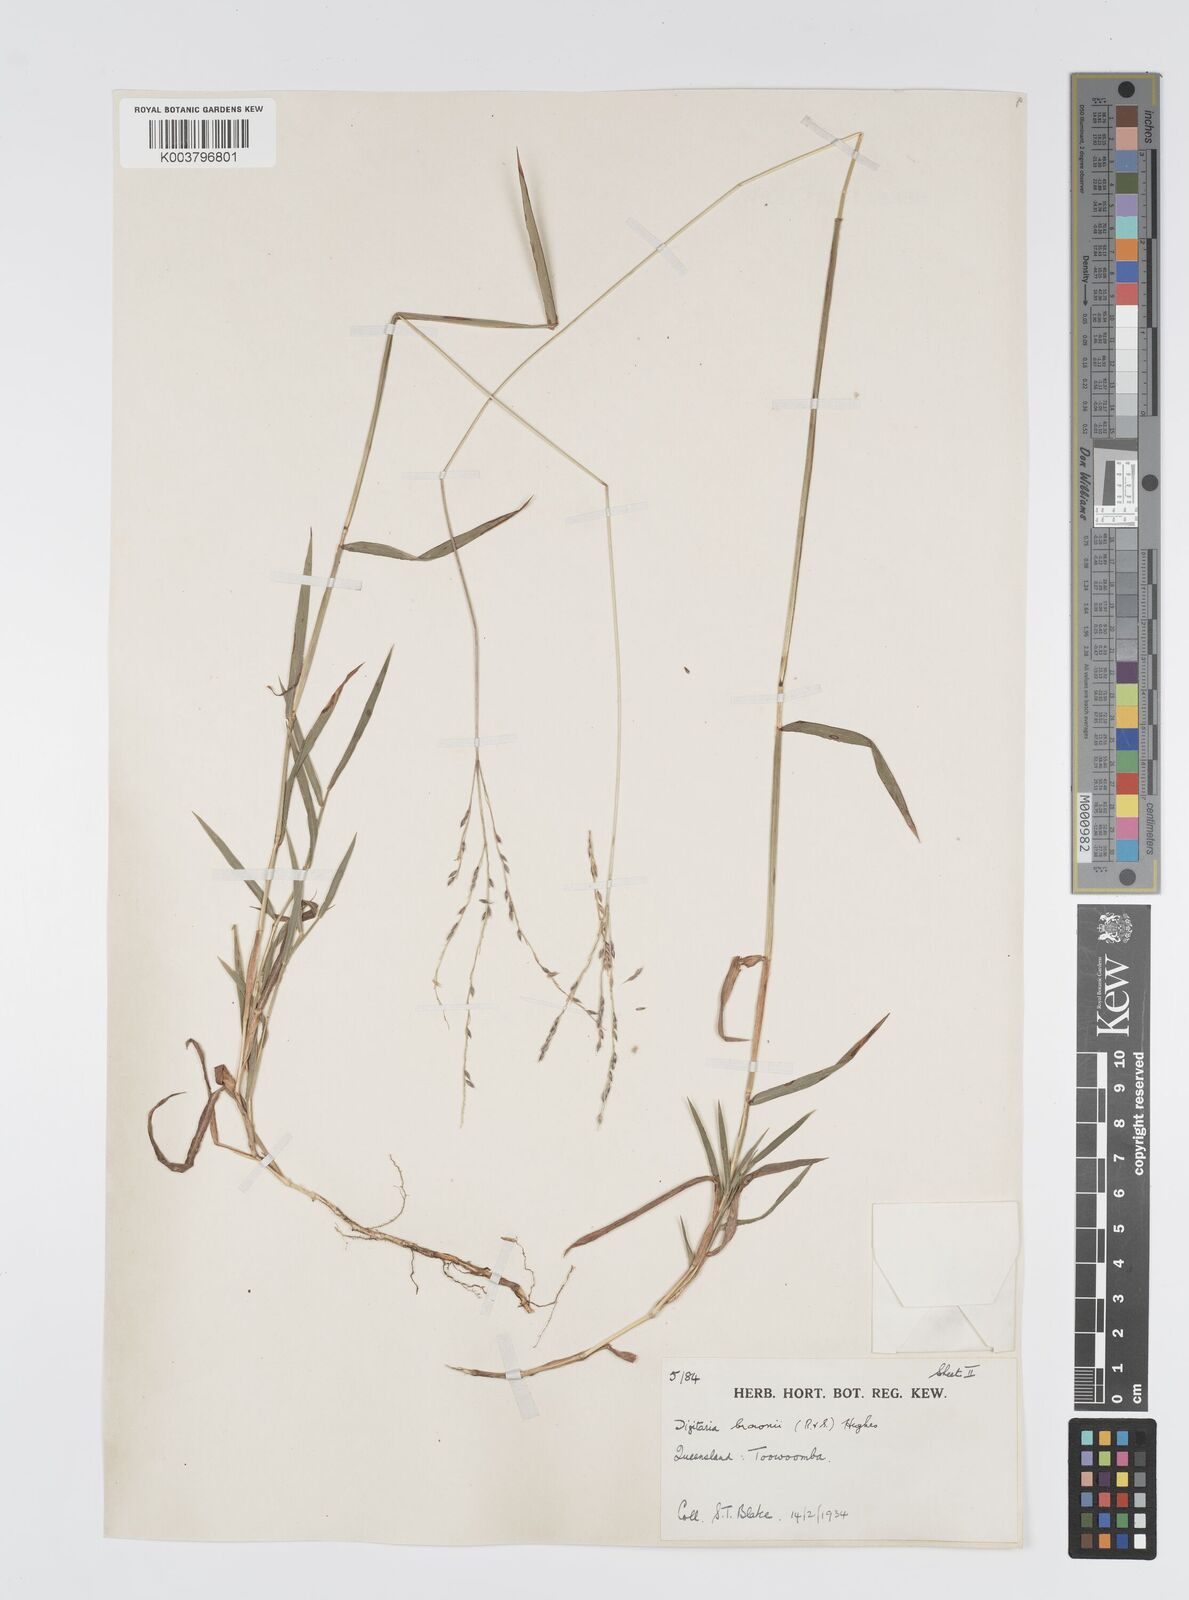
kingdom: Plantae
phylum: Tracheophyta
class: Liliopsida
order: Poales
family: Poaceae
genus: Digitaria
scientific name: Digitaria brownii
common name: Cotton grass
